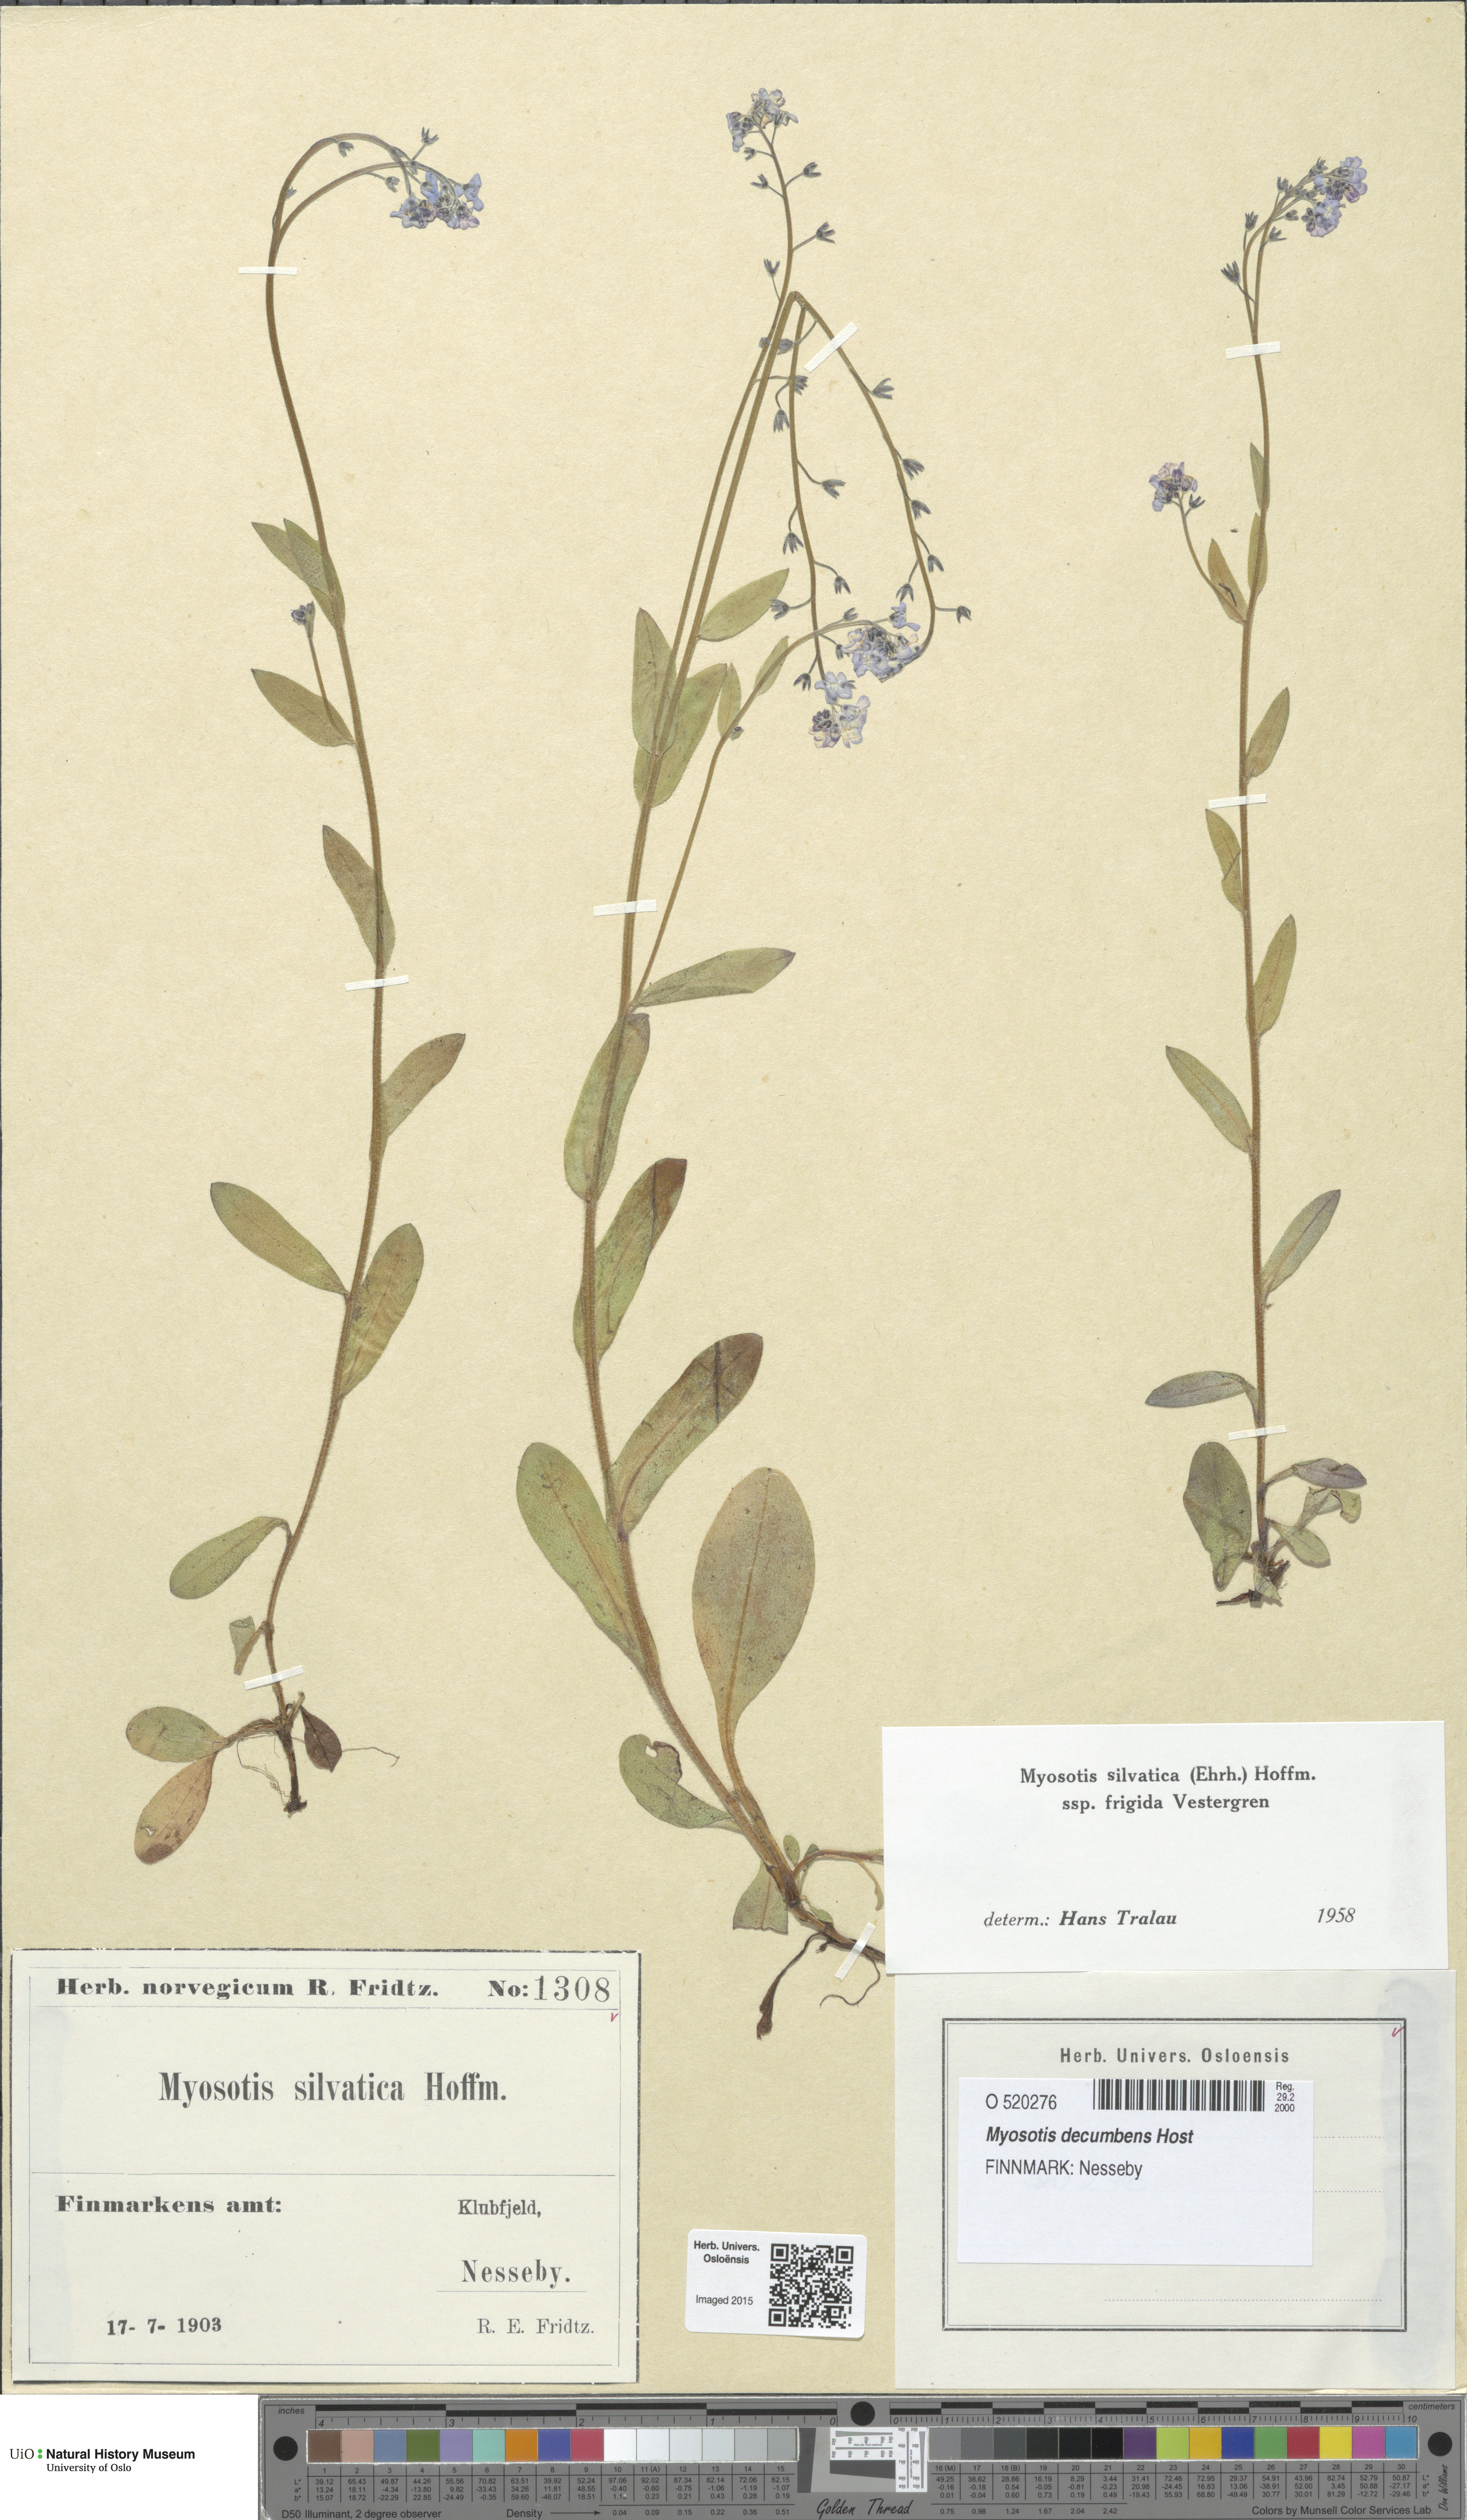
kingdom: Plantae
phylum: Tracheophyta
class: Magnoliopsida
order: Boraginales
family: Boraginaceae
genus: Myosotis
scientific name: Myosotis decumbens
